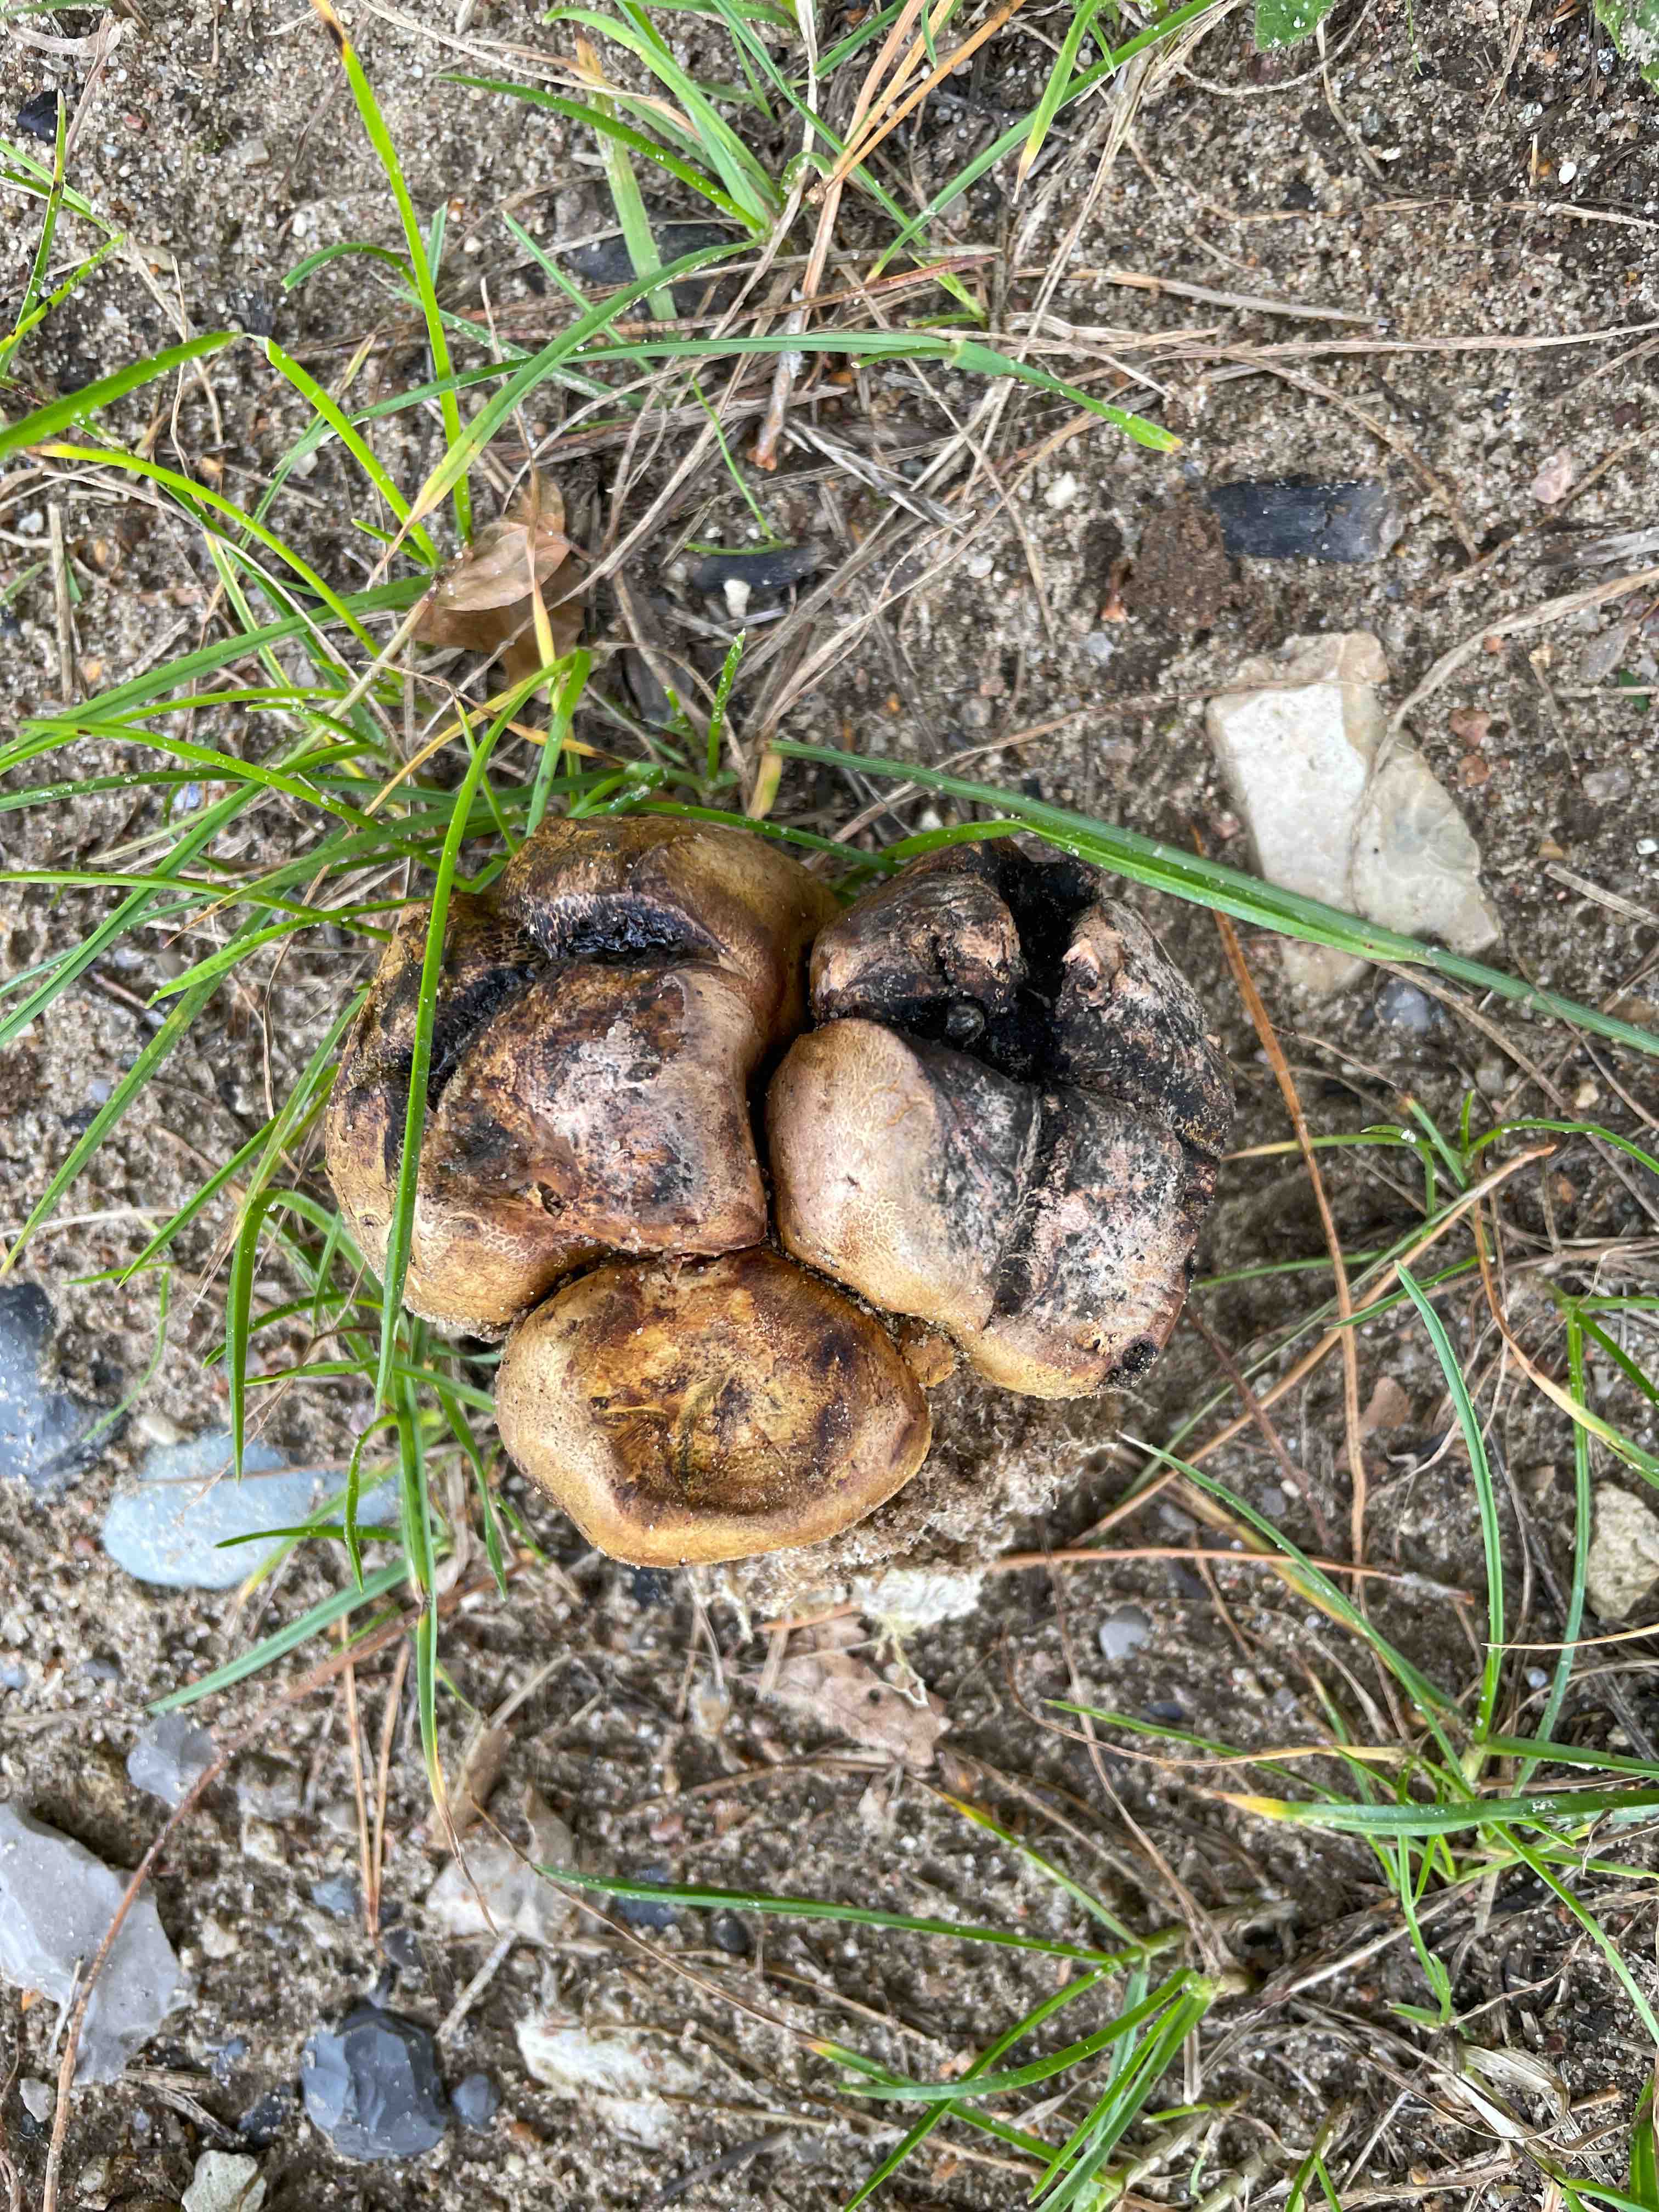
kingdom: Fungi
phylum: Basidiomycota
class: Agaricomycetes
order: Boletales
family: Sclerodermataceae
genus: Scleroderma
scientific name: Scleroderma
